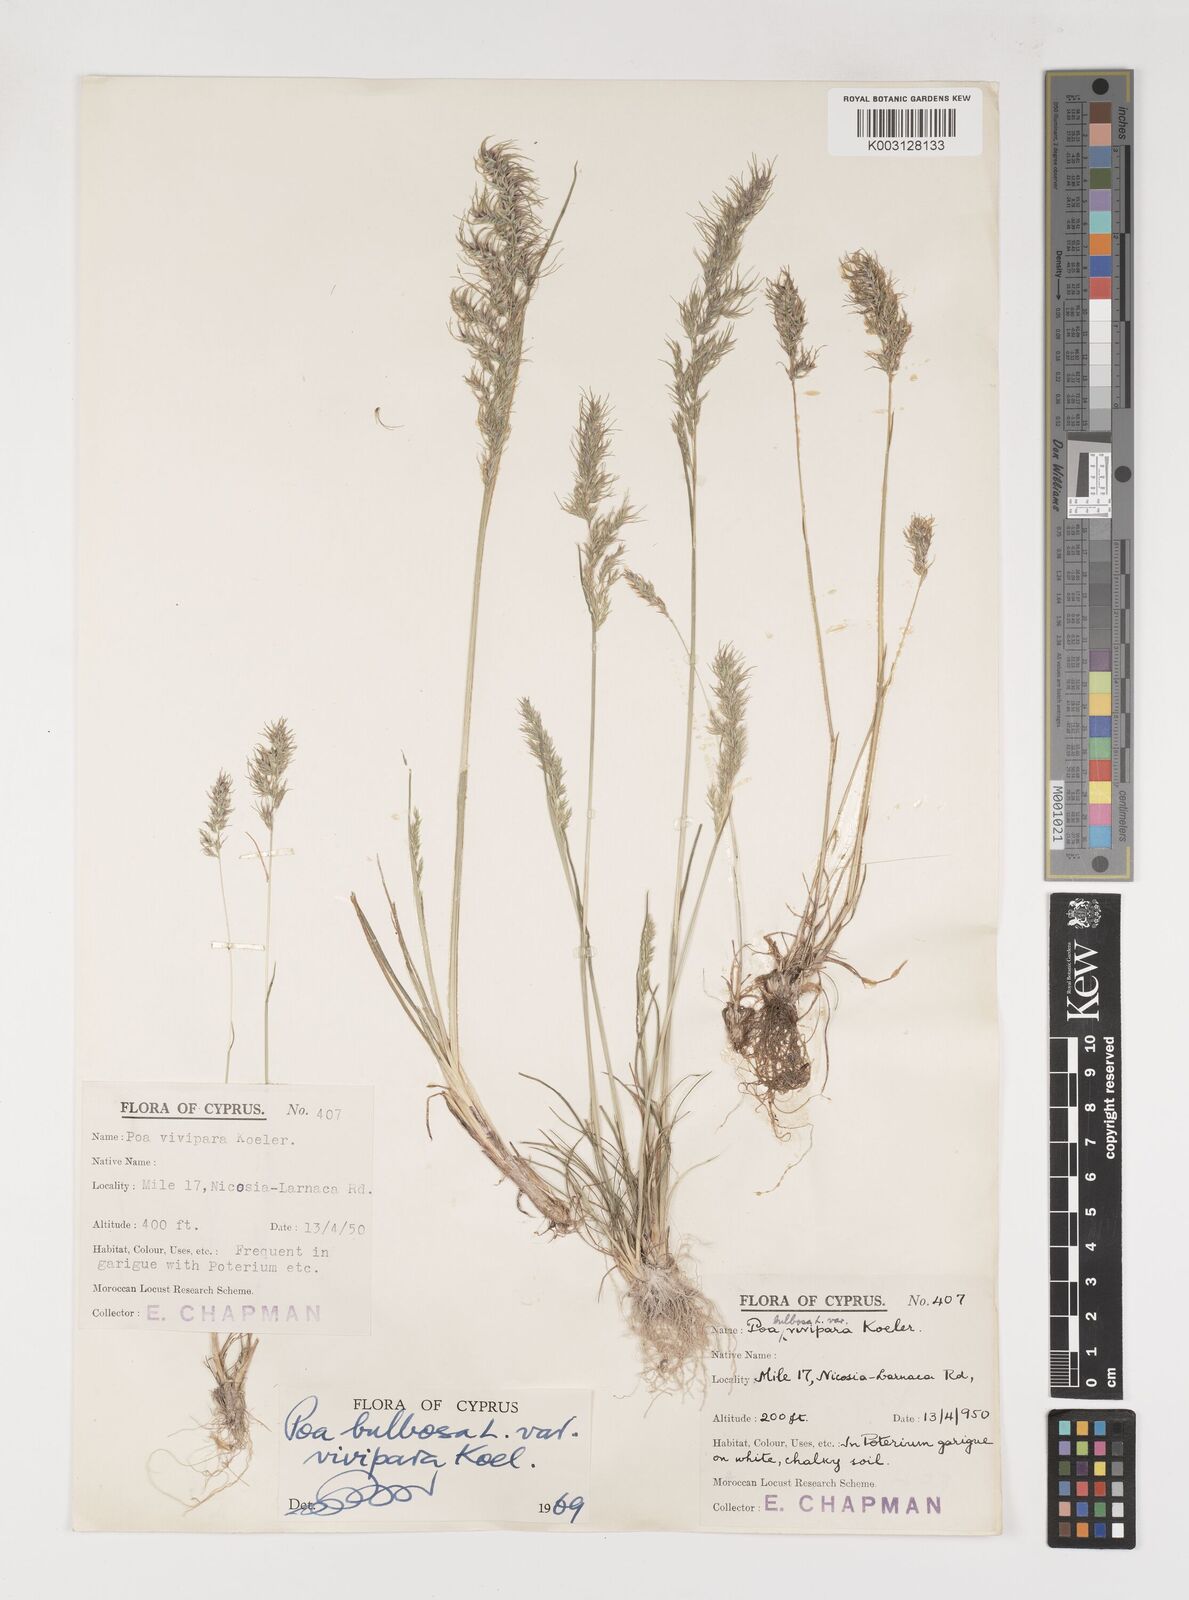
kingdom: Plantae
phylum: Tracheophyta
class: Liliopsida
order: Poales
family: Poaceae
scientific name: Poaceae
